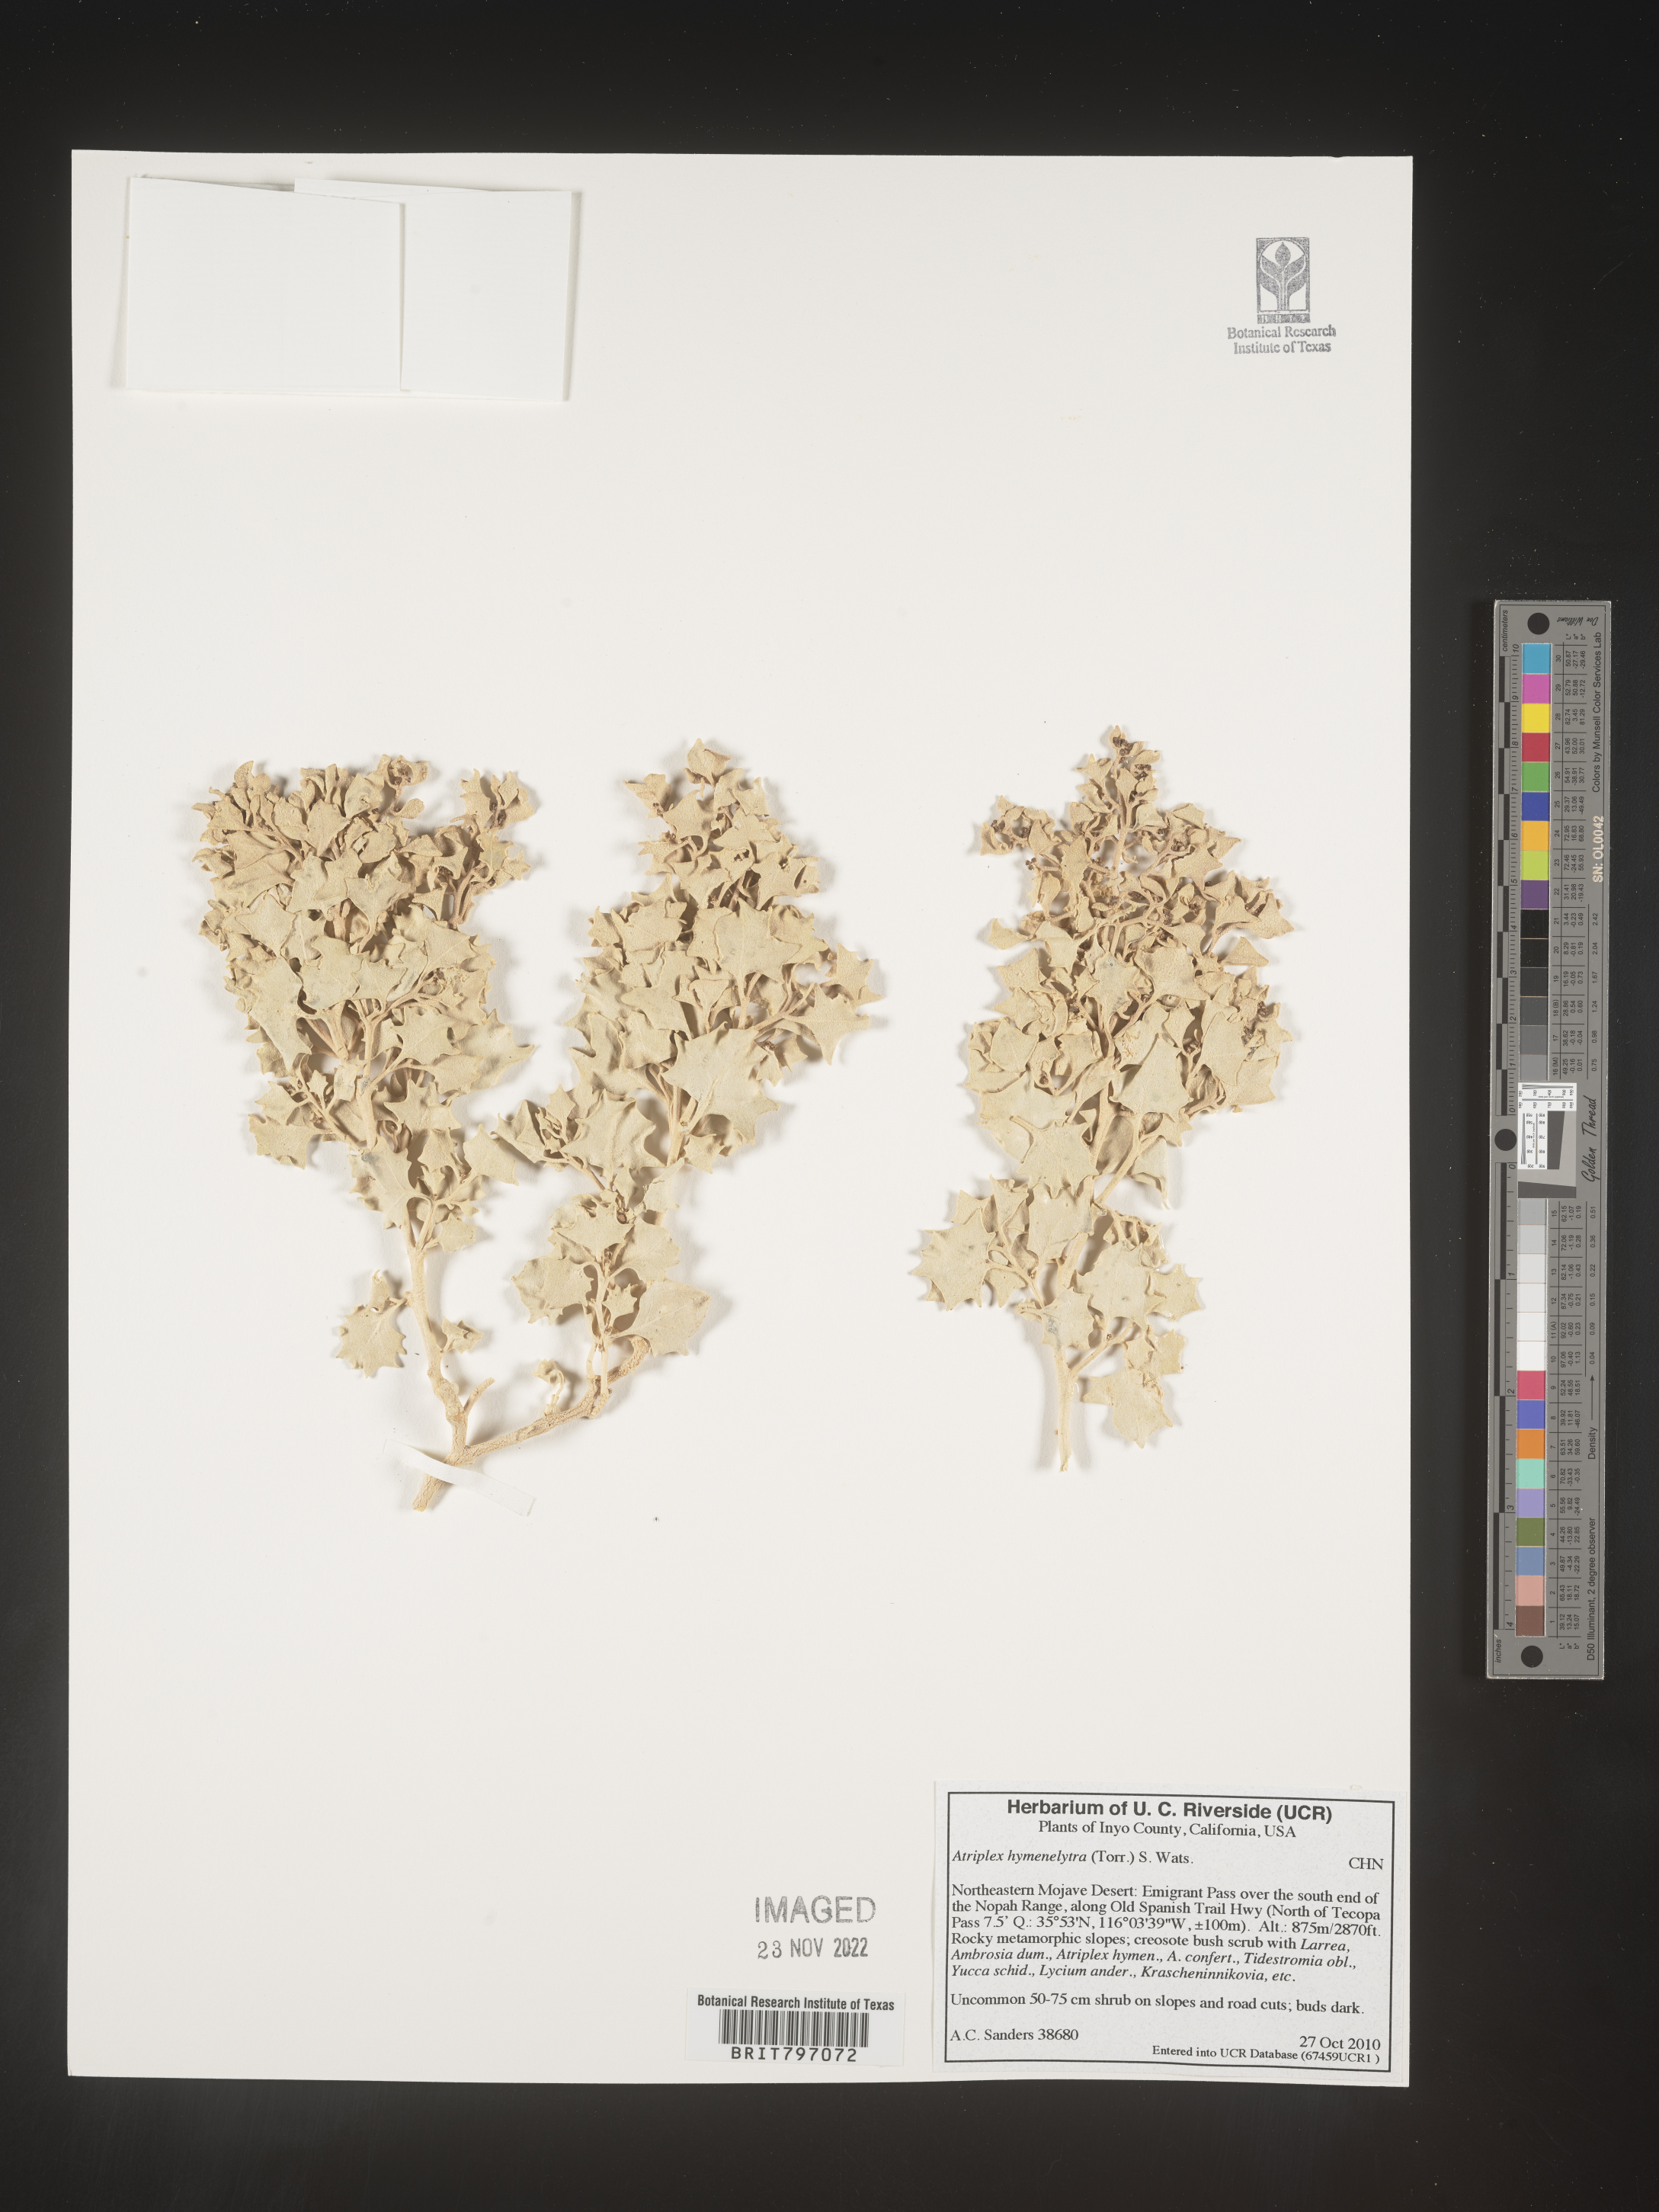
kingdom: Plantae
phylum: Tracheophyta
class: Magnoliopsida
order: Caryophyllales
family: Amaranthaceae
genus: Atriplex
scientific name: Atriplex
